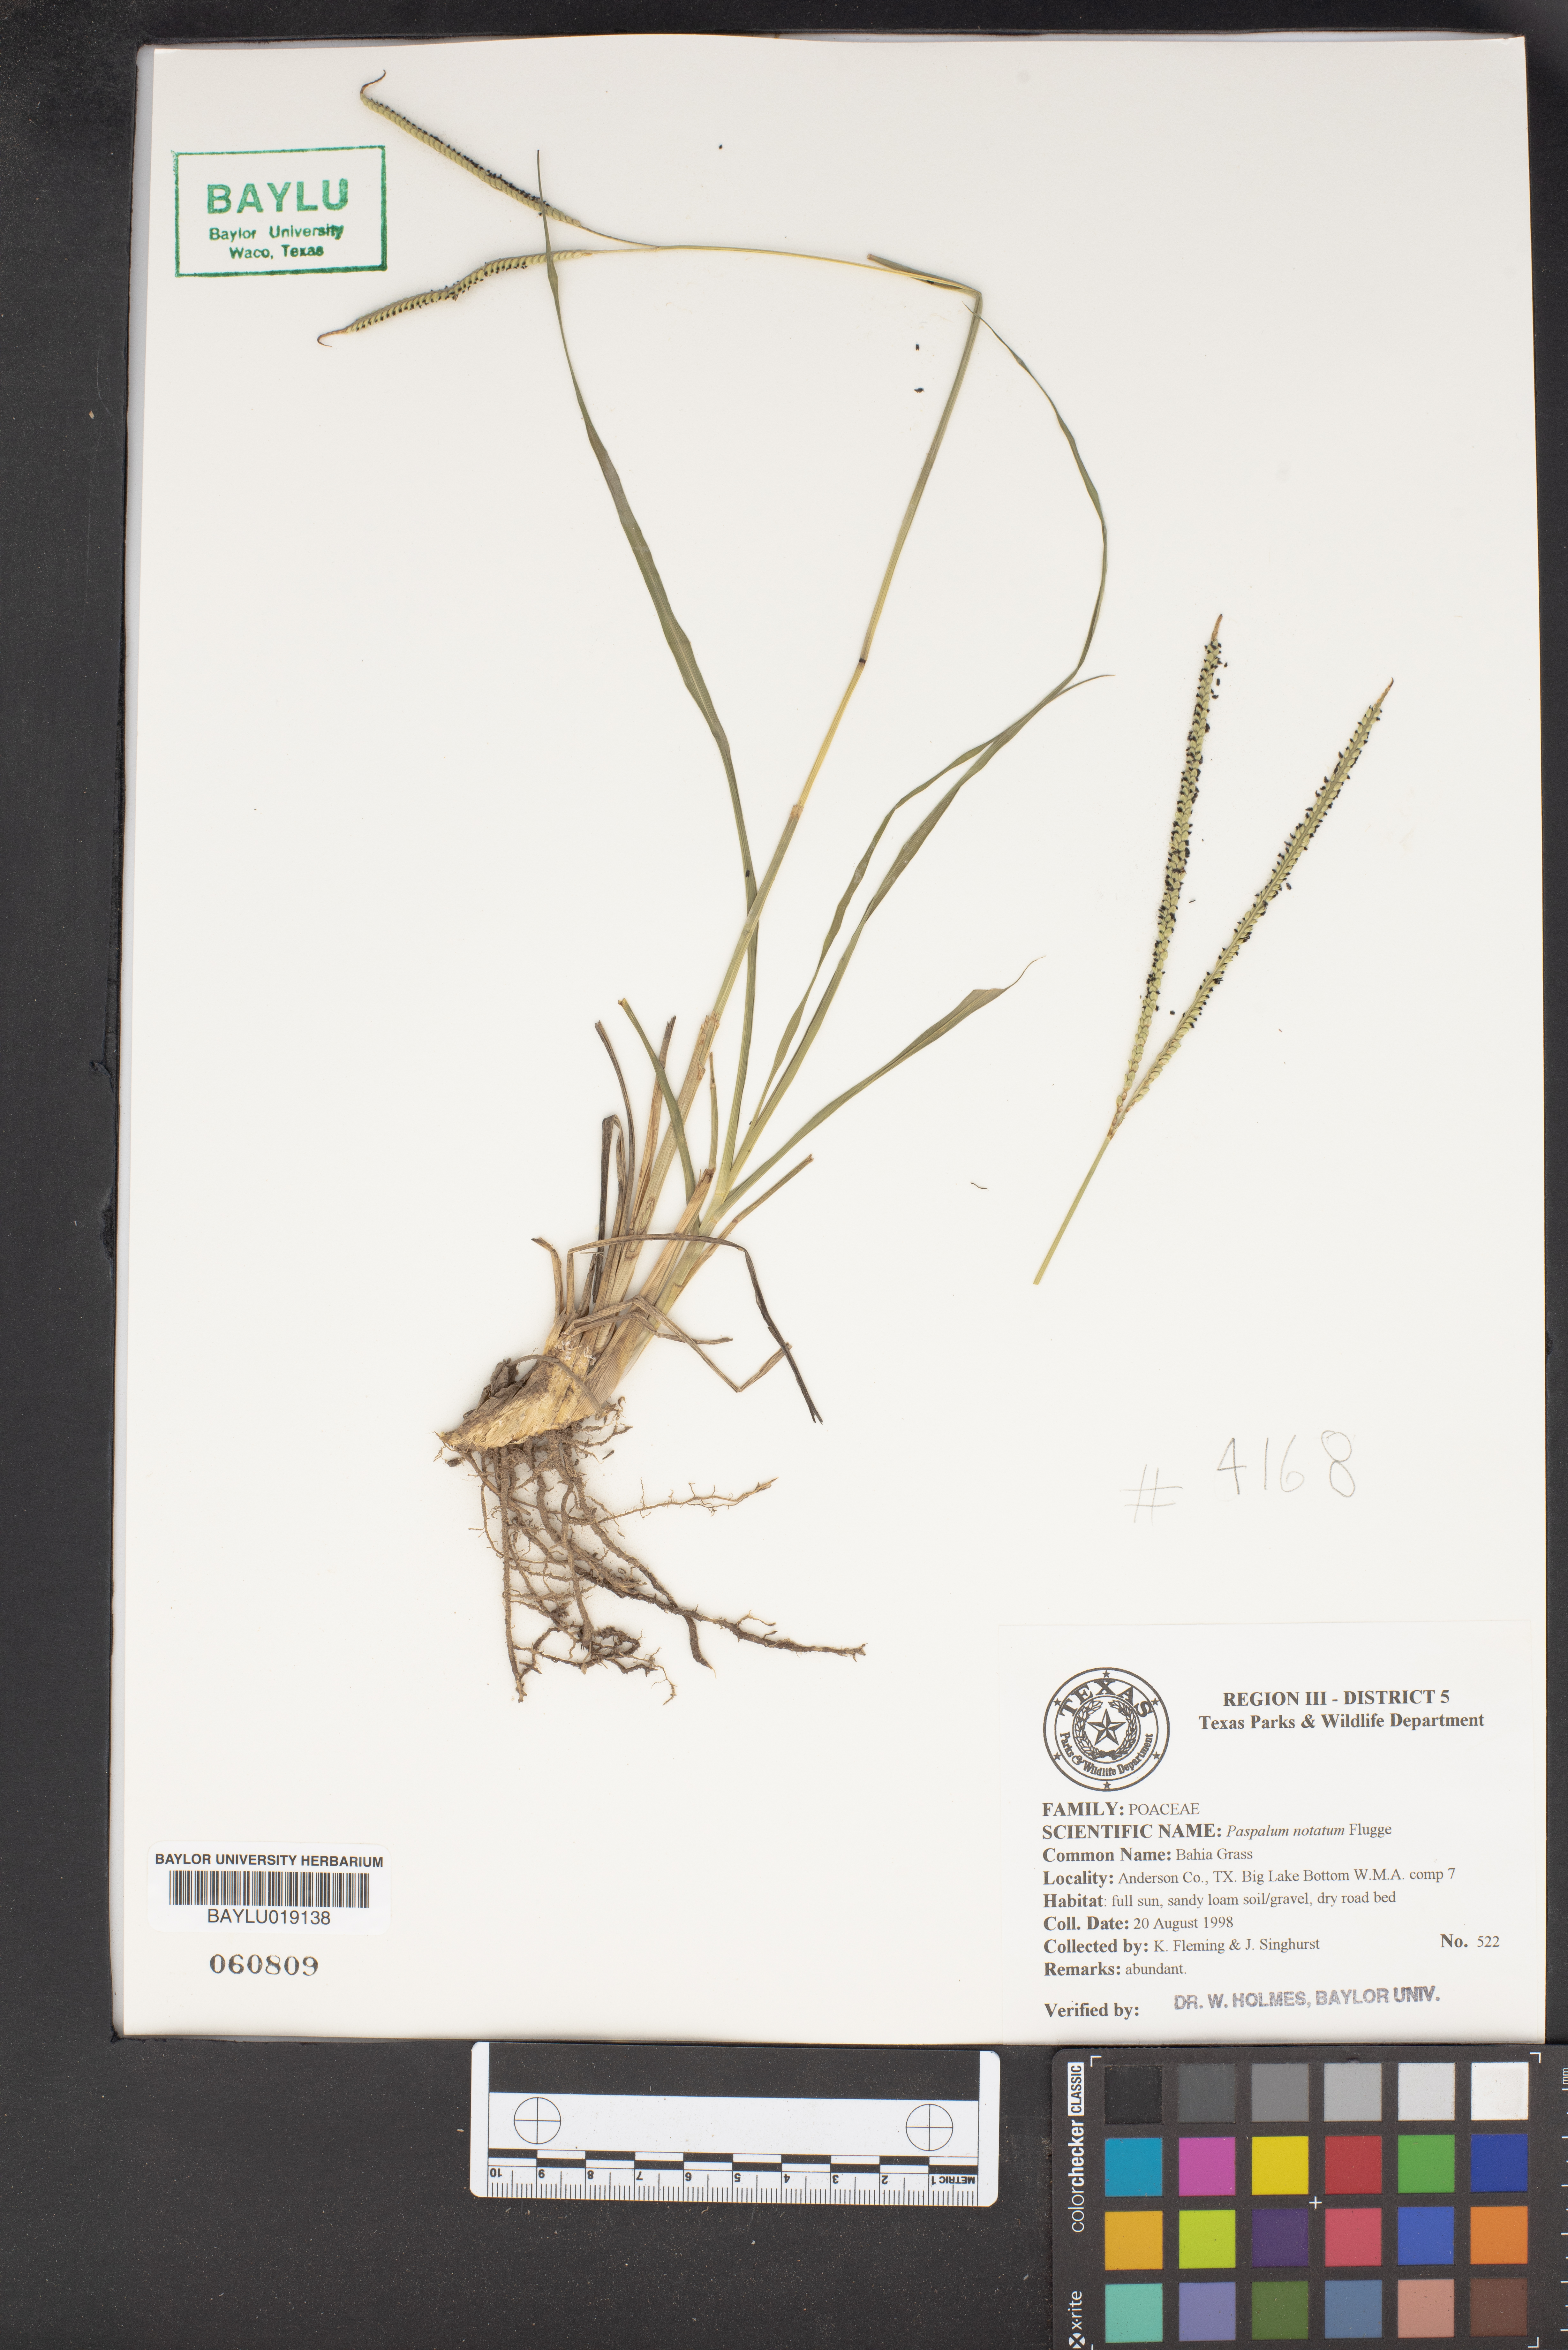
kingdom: Plantae
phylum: Tracheophyta
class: Liliopsida
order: Poales
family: Poaceae
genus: Paspalum
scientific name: Paspalum notatum
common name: Bahiagrass
